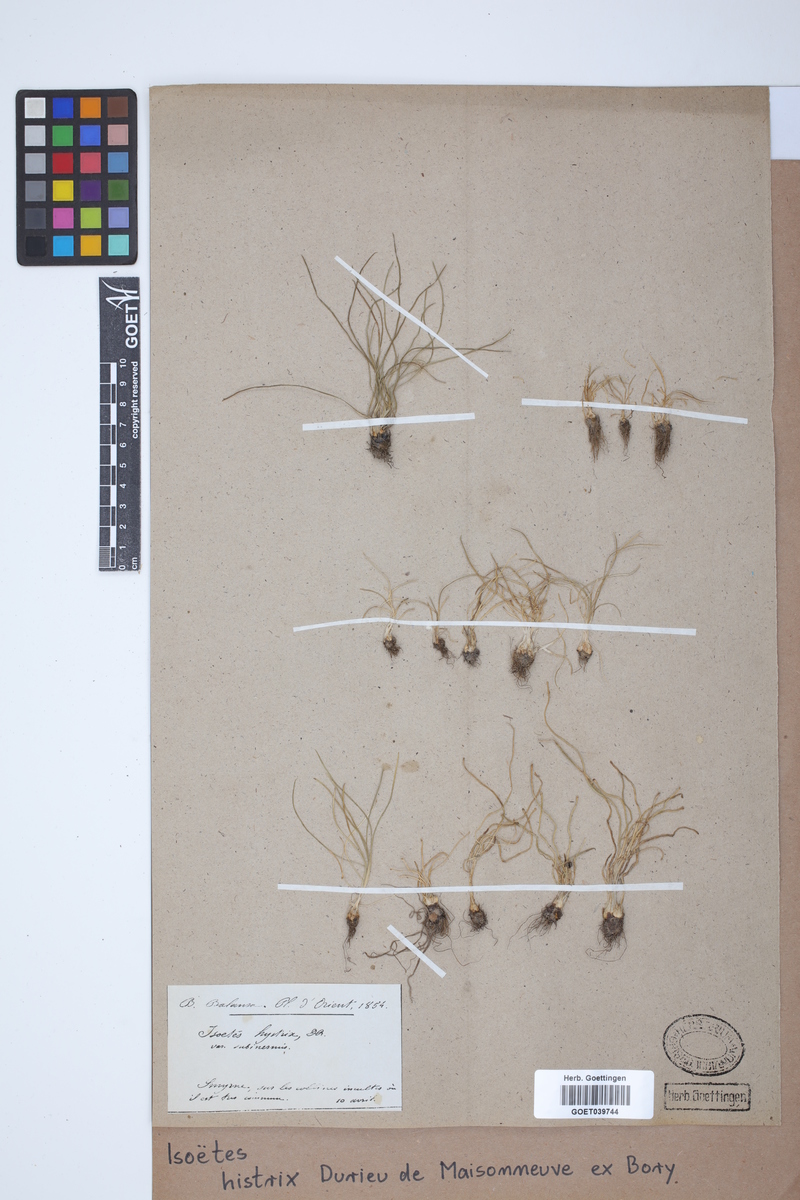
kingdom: Plantae
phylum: Tracheophyta
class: Lycopodiopsida
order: Isoetales
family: Isoetaceae
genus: Isoetes
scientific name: Isoetes histrix
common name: Land quillwort
